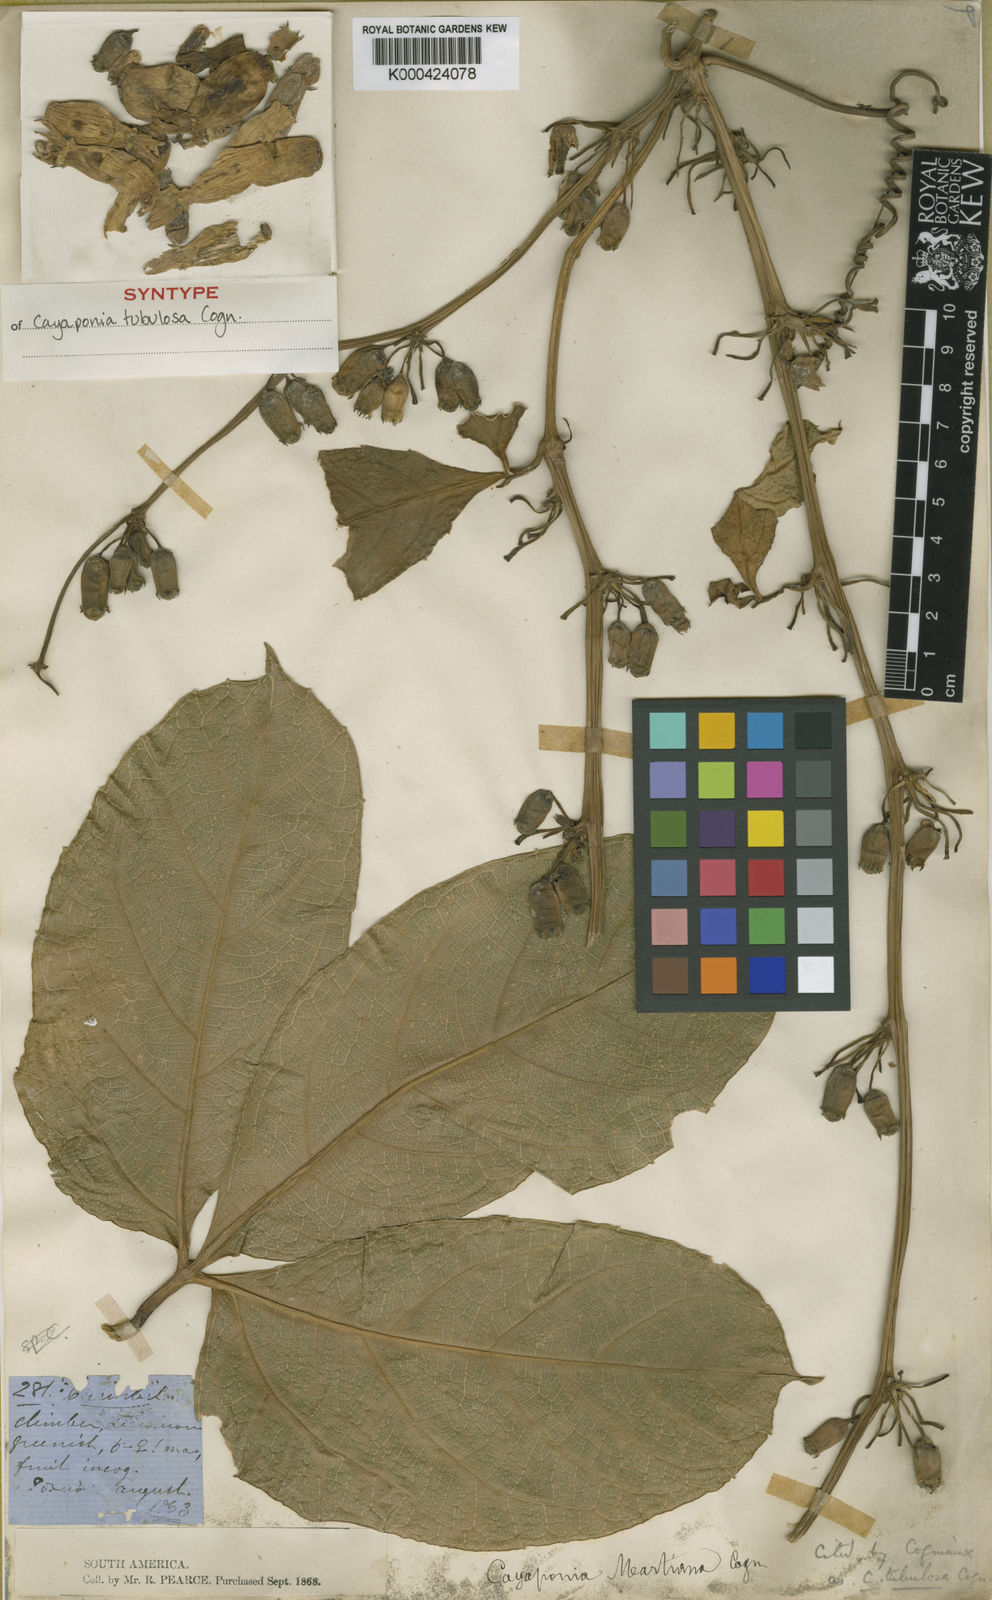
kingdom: Plantae
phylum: Tracheophyta
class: Magnoliopsida
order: Cucurbitales
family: Cucurbitaceae
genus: Cayaponia
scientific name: Cayaponia tubulosa
